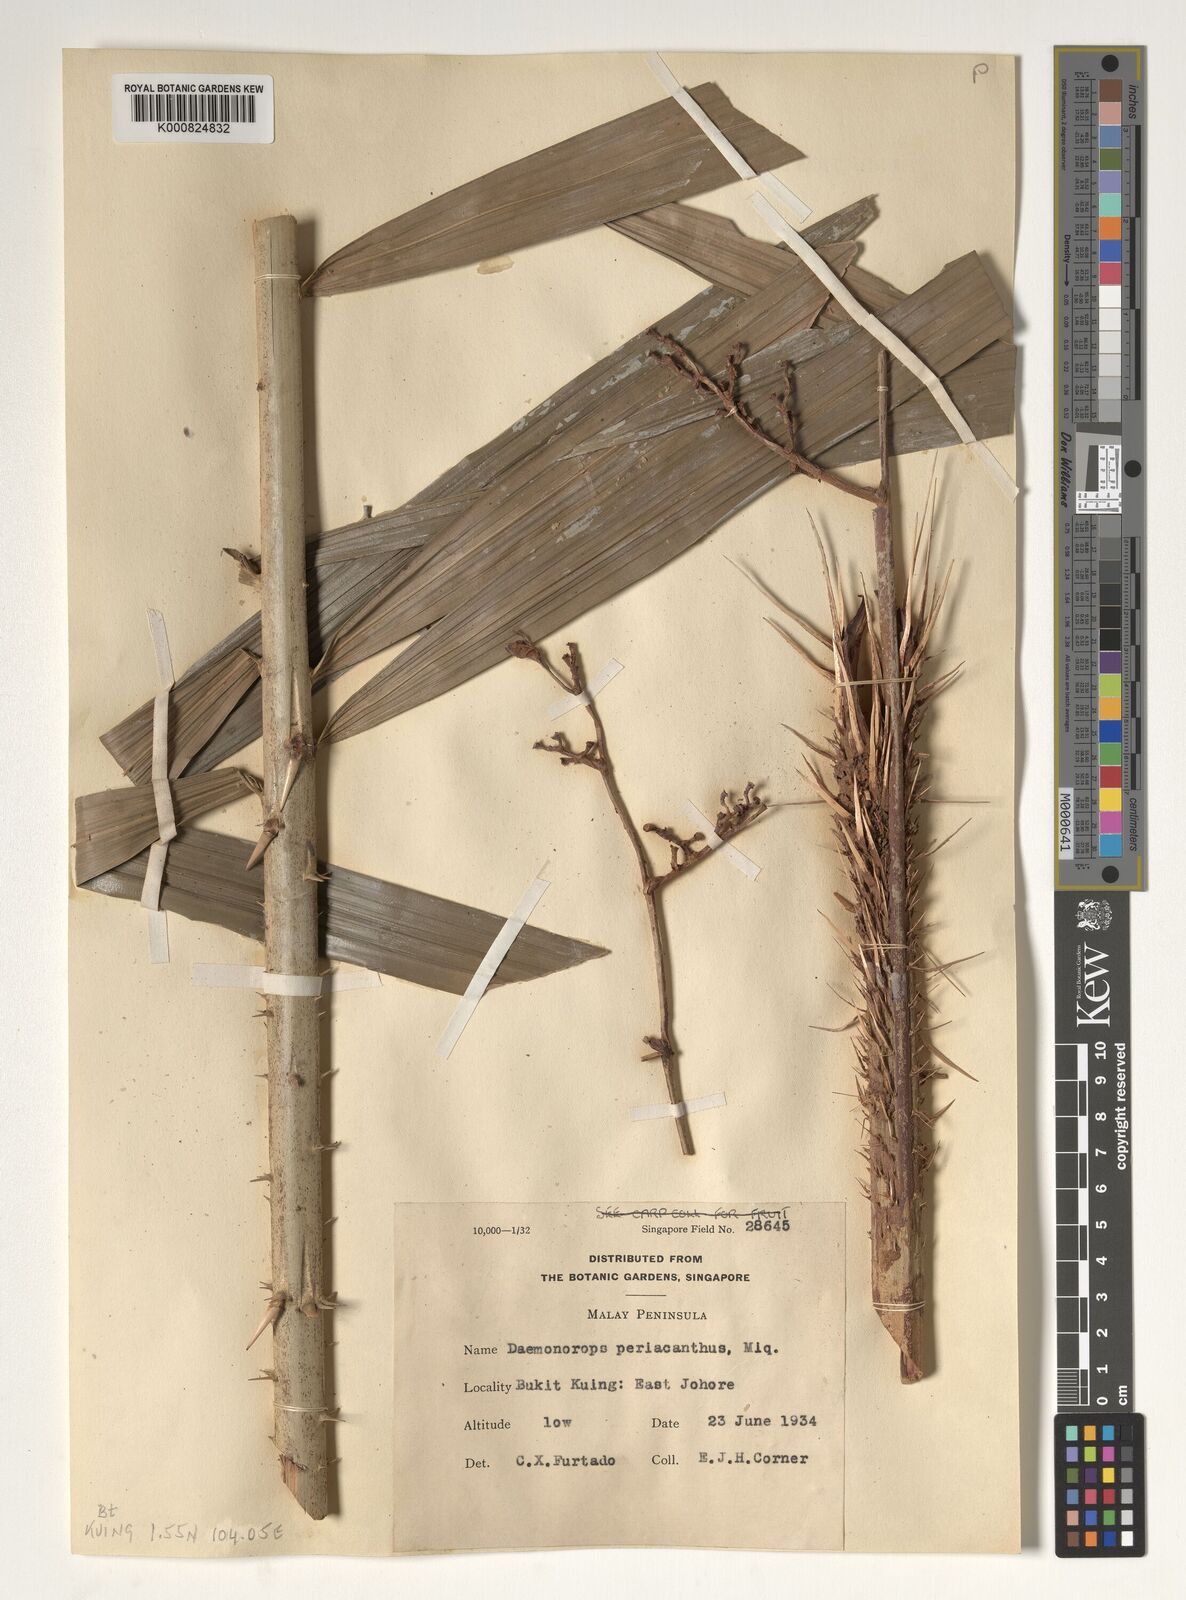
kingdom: Plantae
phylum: Tracheophyta
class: Liliopsida
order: Arecales
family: Arecaceae
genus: Calamus
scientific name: Calamus periacanthus
